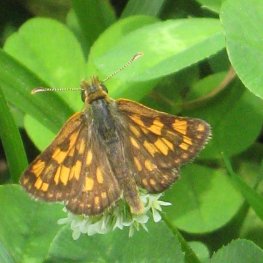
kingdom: Animalia
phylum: Arthropoda
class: Insecta
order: Lepidoptera
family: Hesperiidae
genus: Carterocephalus
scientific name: Carterocephalus palaemon
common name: Chequered Skipper
